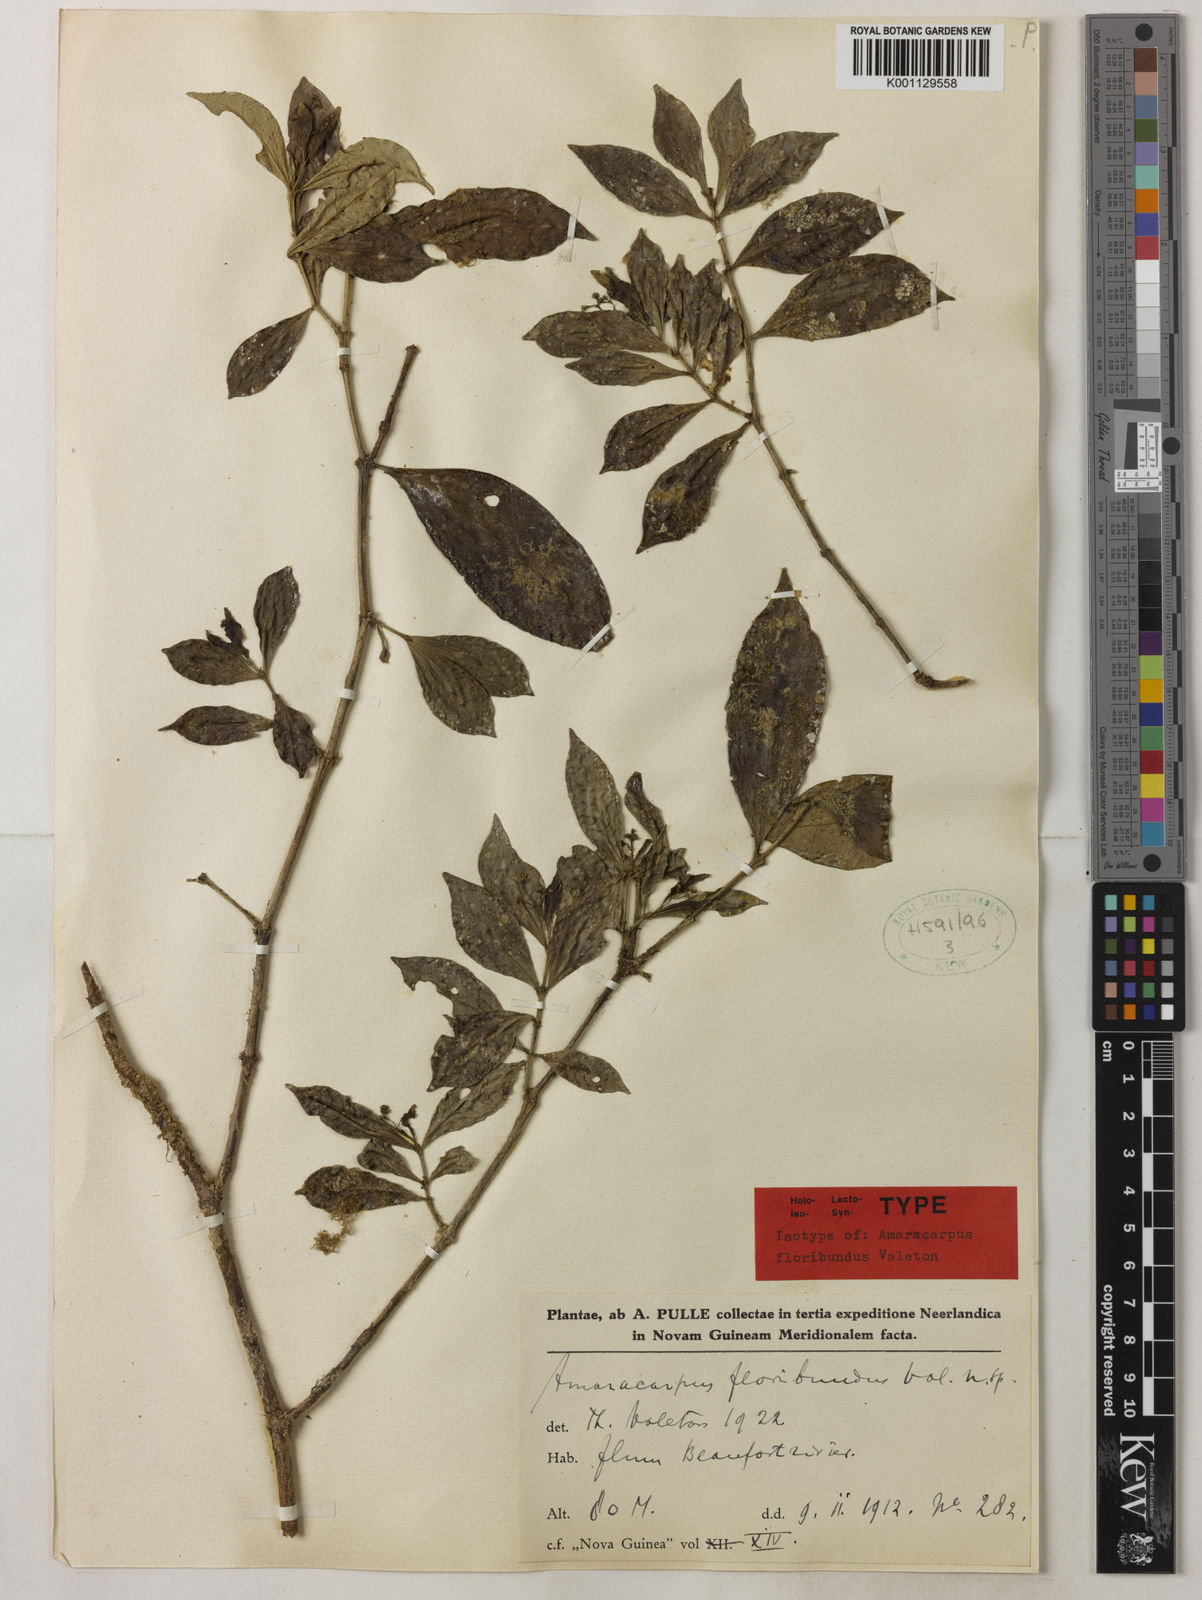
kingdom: Plantae
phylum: Tracheophyta
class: Magnoliopsida
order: Gentianales
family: Rubiaceae
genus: Amaracarpus
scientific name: Amaracarpus floribundus
